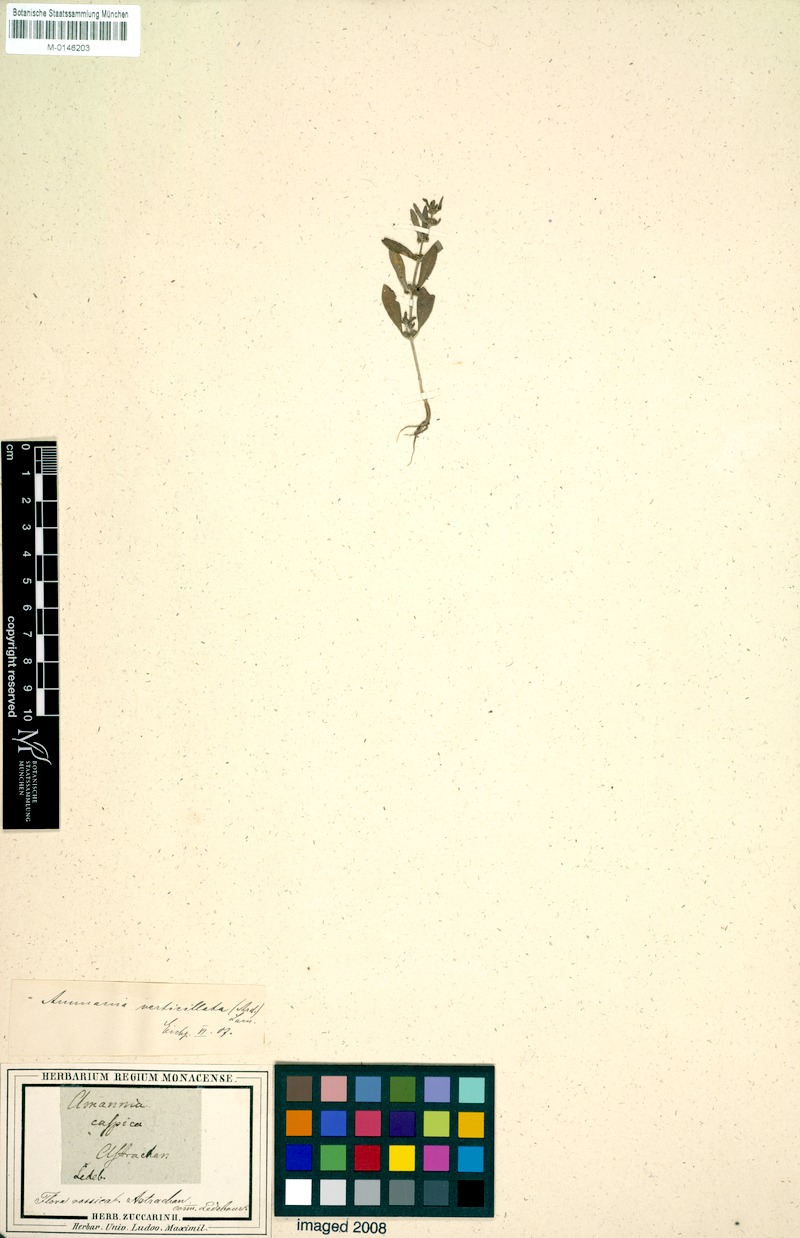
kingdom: Plantae
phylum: Tracheophyta
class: Magnoliopsida
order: Myrtales
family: Lythraceae
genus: Ammannia
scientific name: Ammannia baccifera
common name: Blistering ammania
